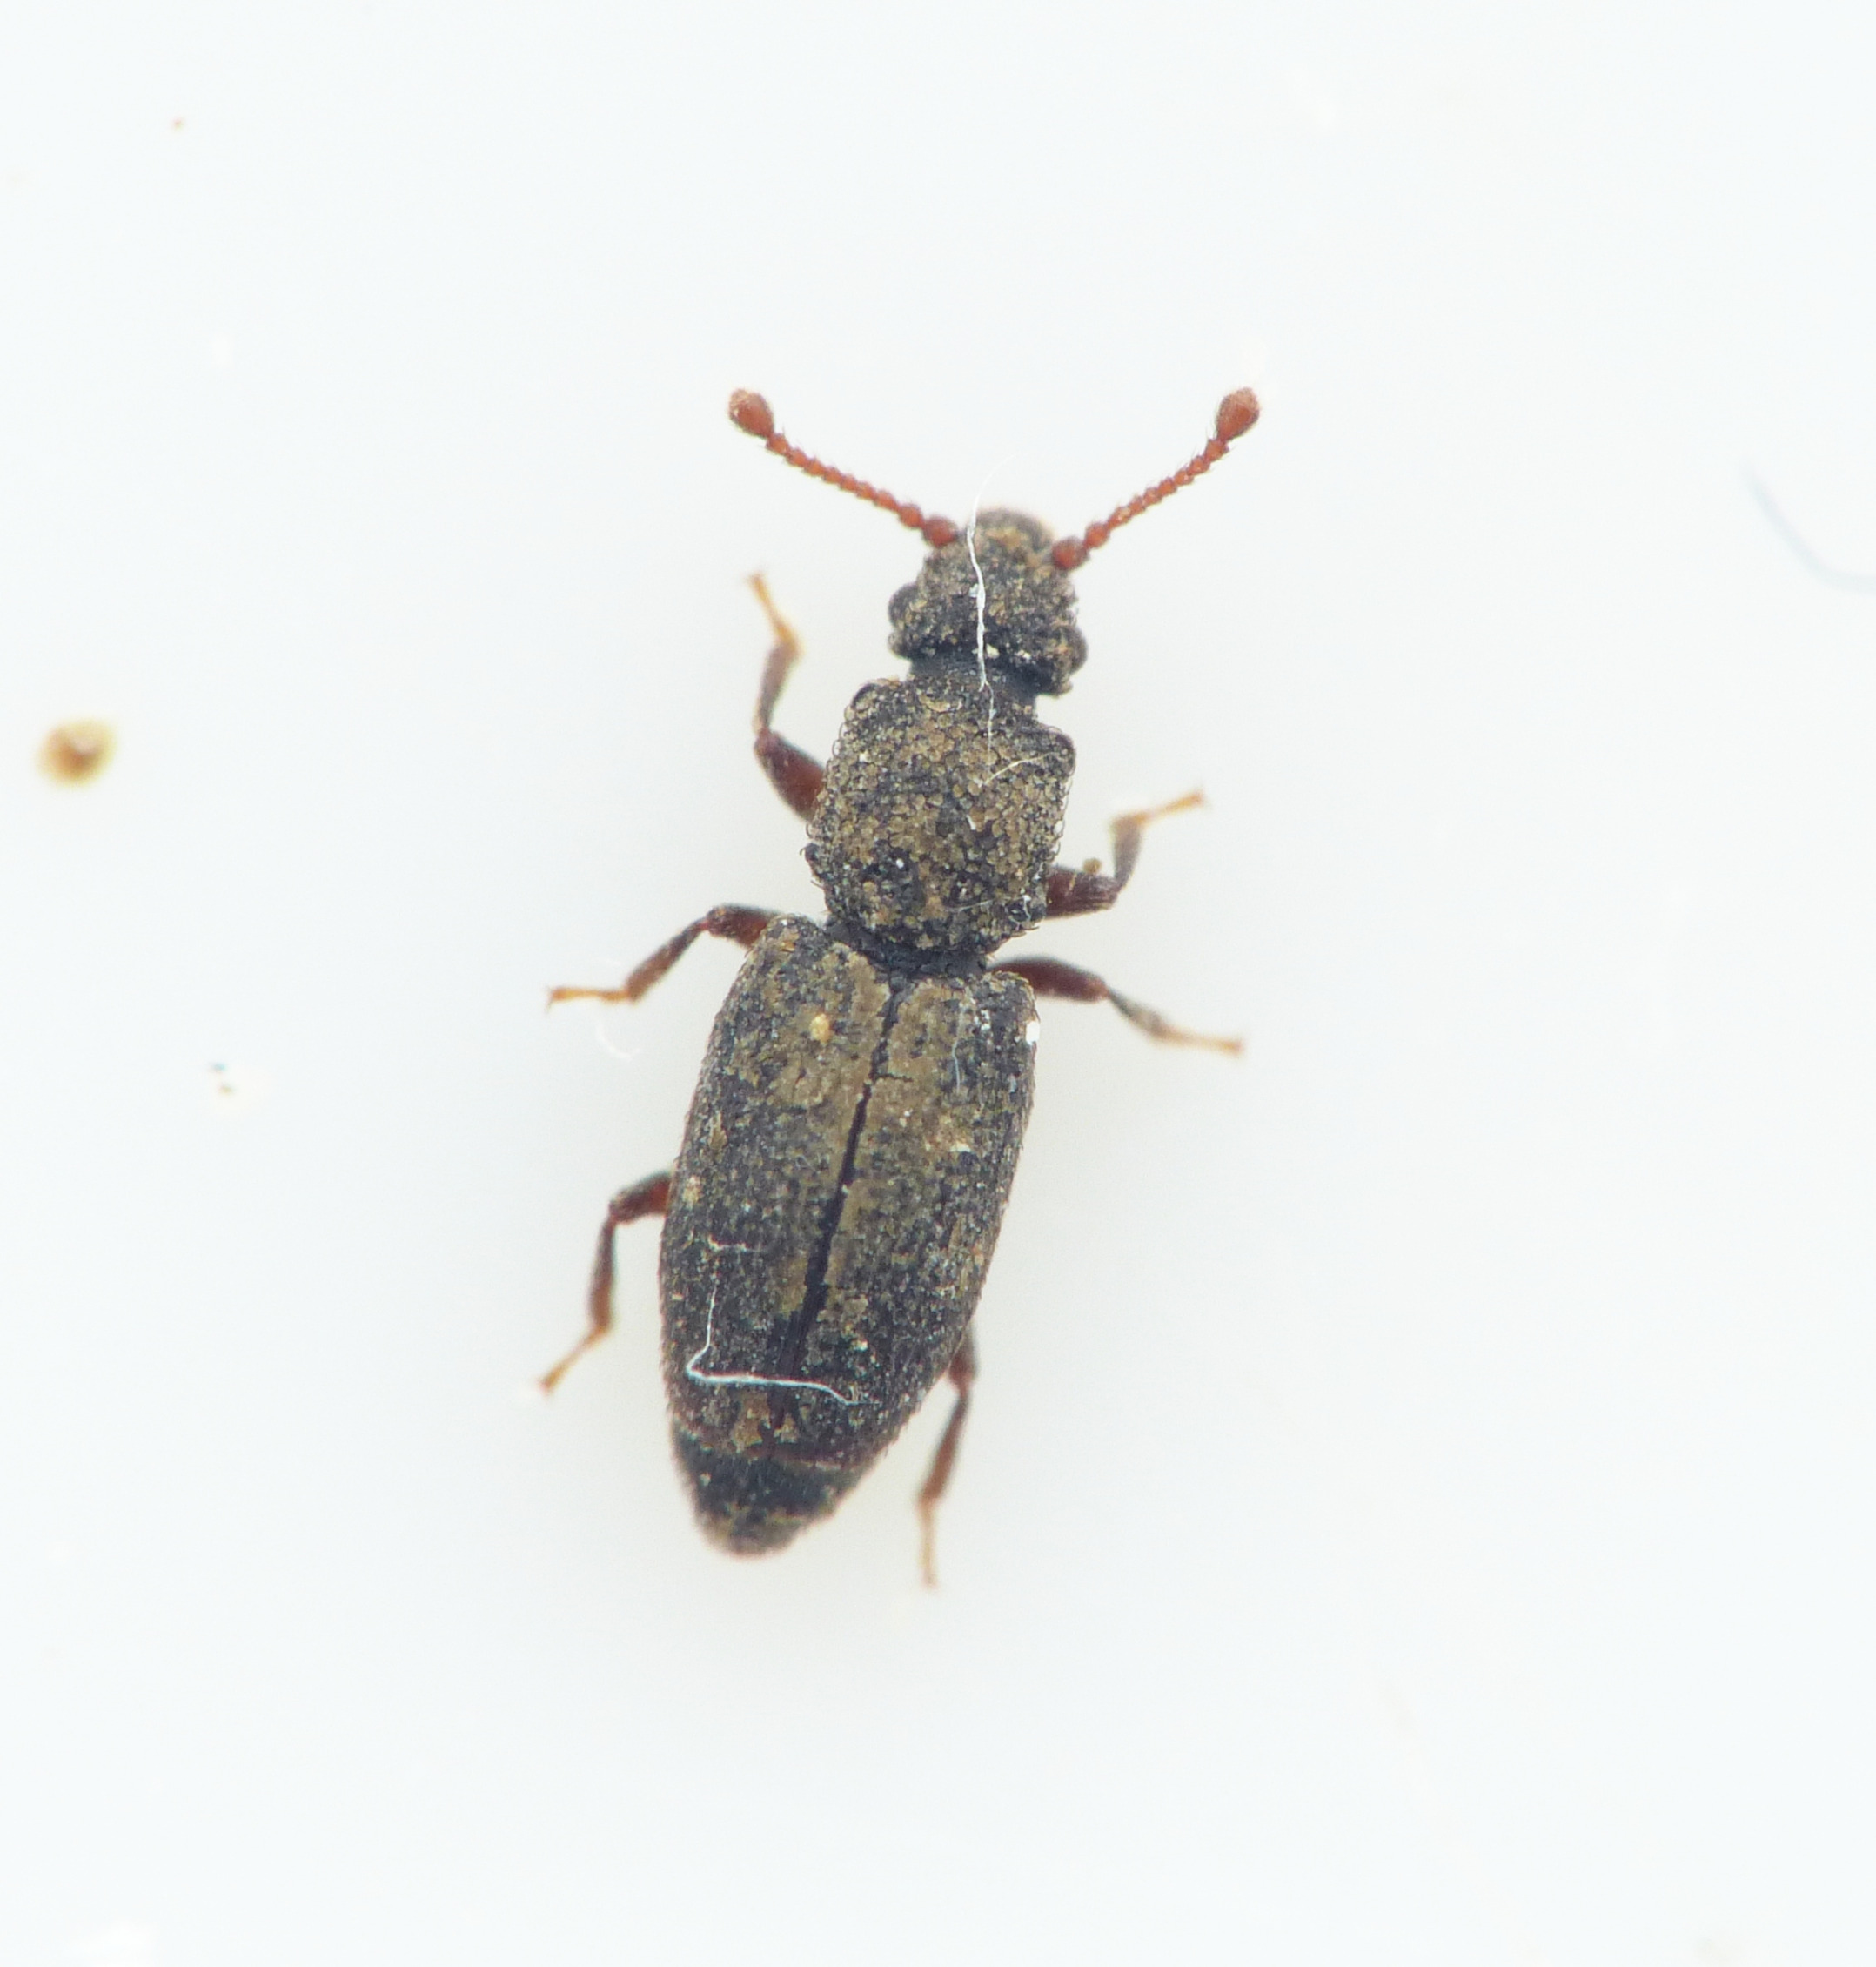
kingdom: Animalia
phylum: Arthropoda
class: Insecta
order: Coleoptera
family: Monotomidae
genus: Monotoma
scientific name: Monotoma brevicollis
